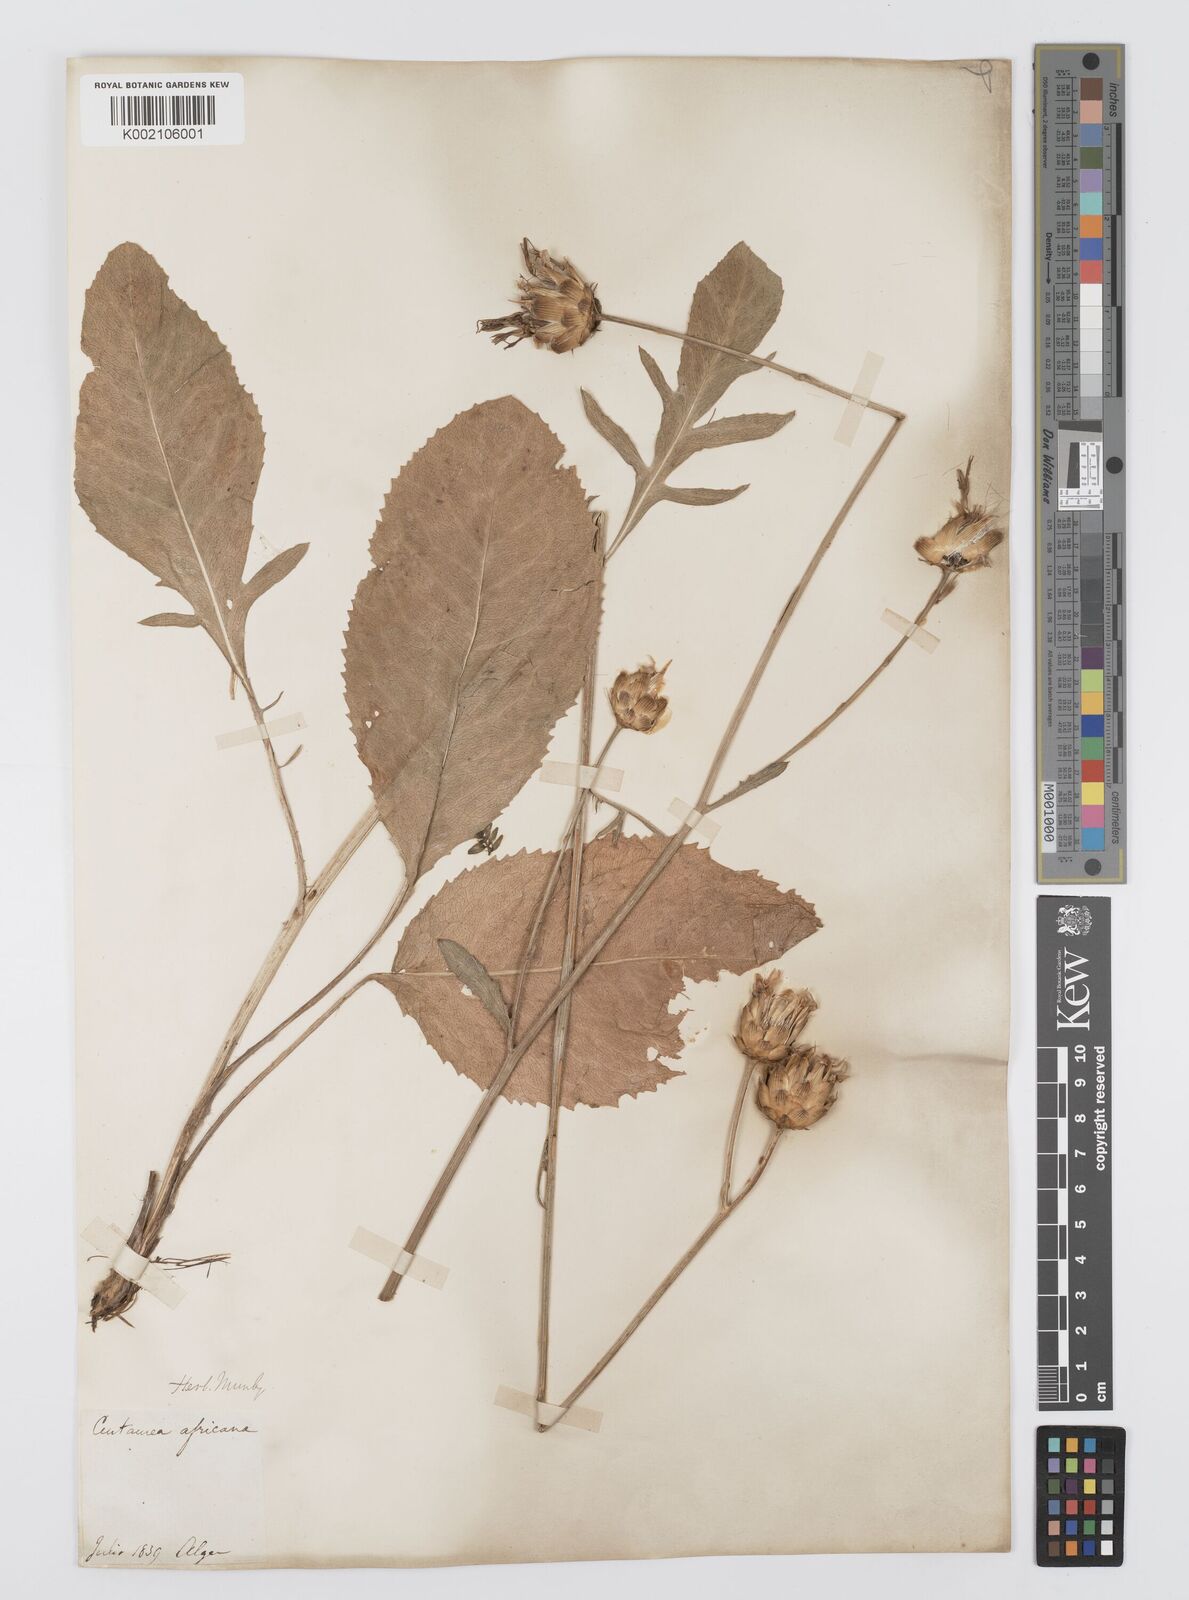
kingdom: Plantae
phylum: Tracheophyta
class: Magnoliopsida
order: Asterales
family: Asteraceae
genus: Rhaponticoides
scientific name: Rhaponticoides africana
